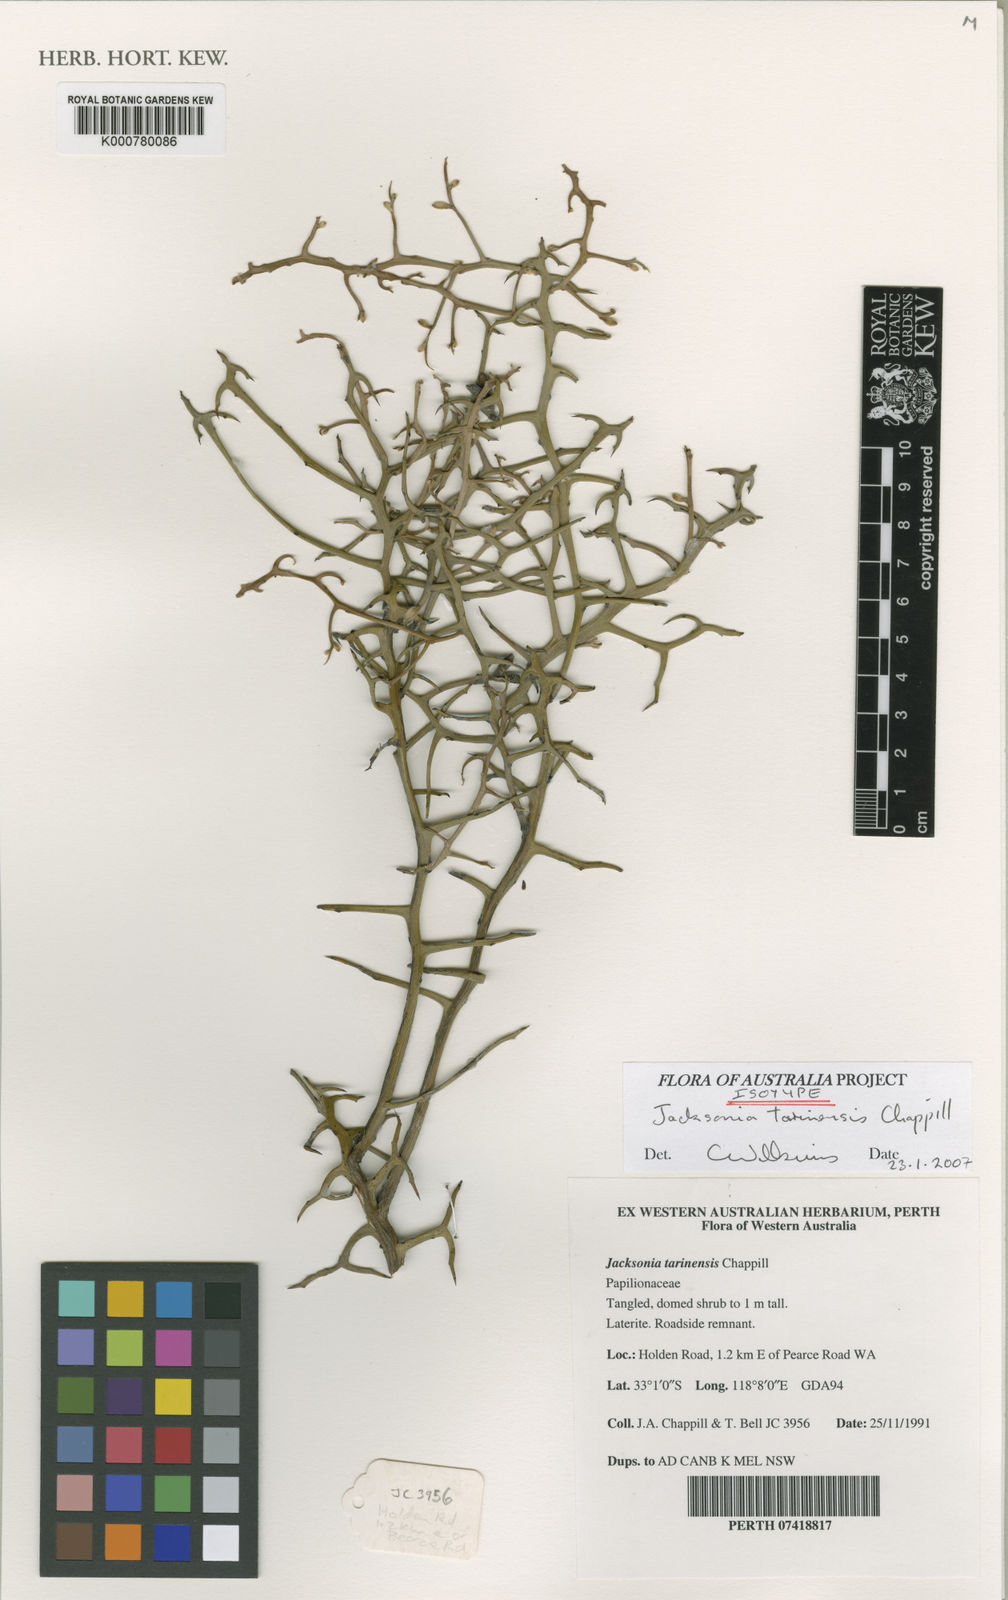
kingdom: Plantae
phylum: Tracheophyta
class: Magnoliopsida
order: Fabales
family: Fabaceae
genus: Jacksonia
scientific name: Jacksonia tarinensis
